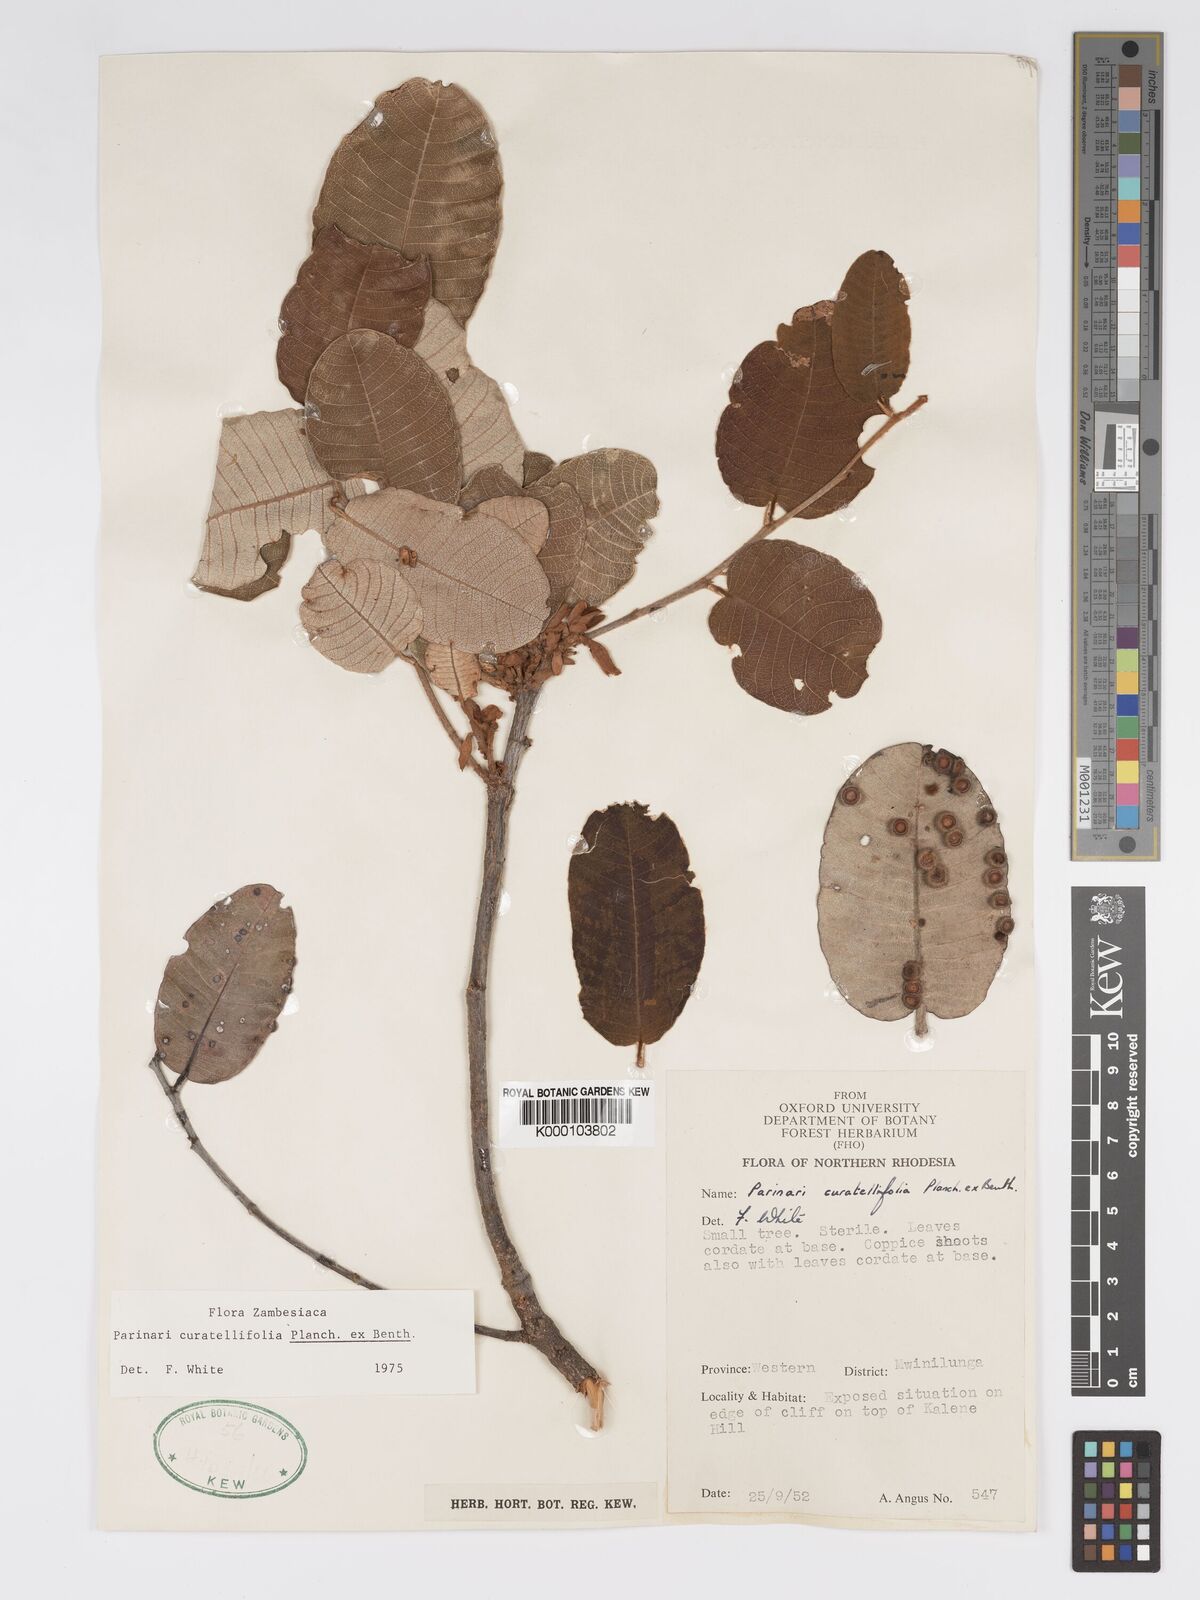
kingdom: Plantae
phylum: Tracheophyta
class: Magnoliopsida
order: Malpighiales
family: Chrysobalanaceae
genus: Parinari
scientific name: Parinari curatellifolia
